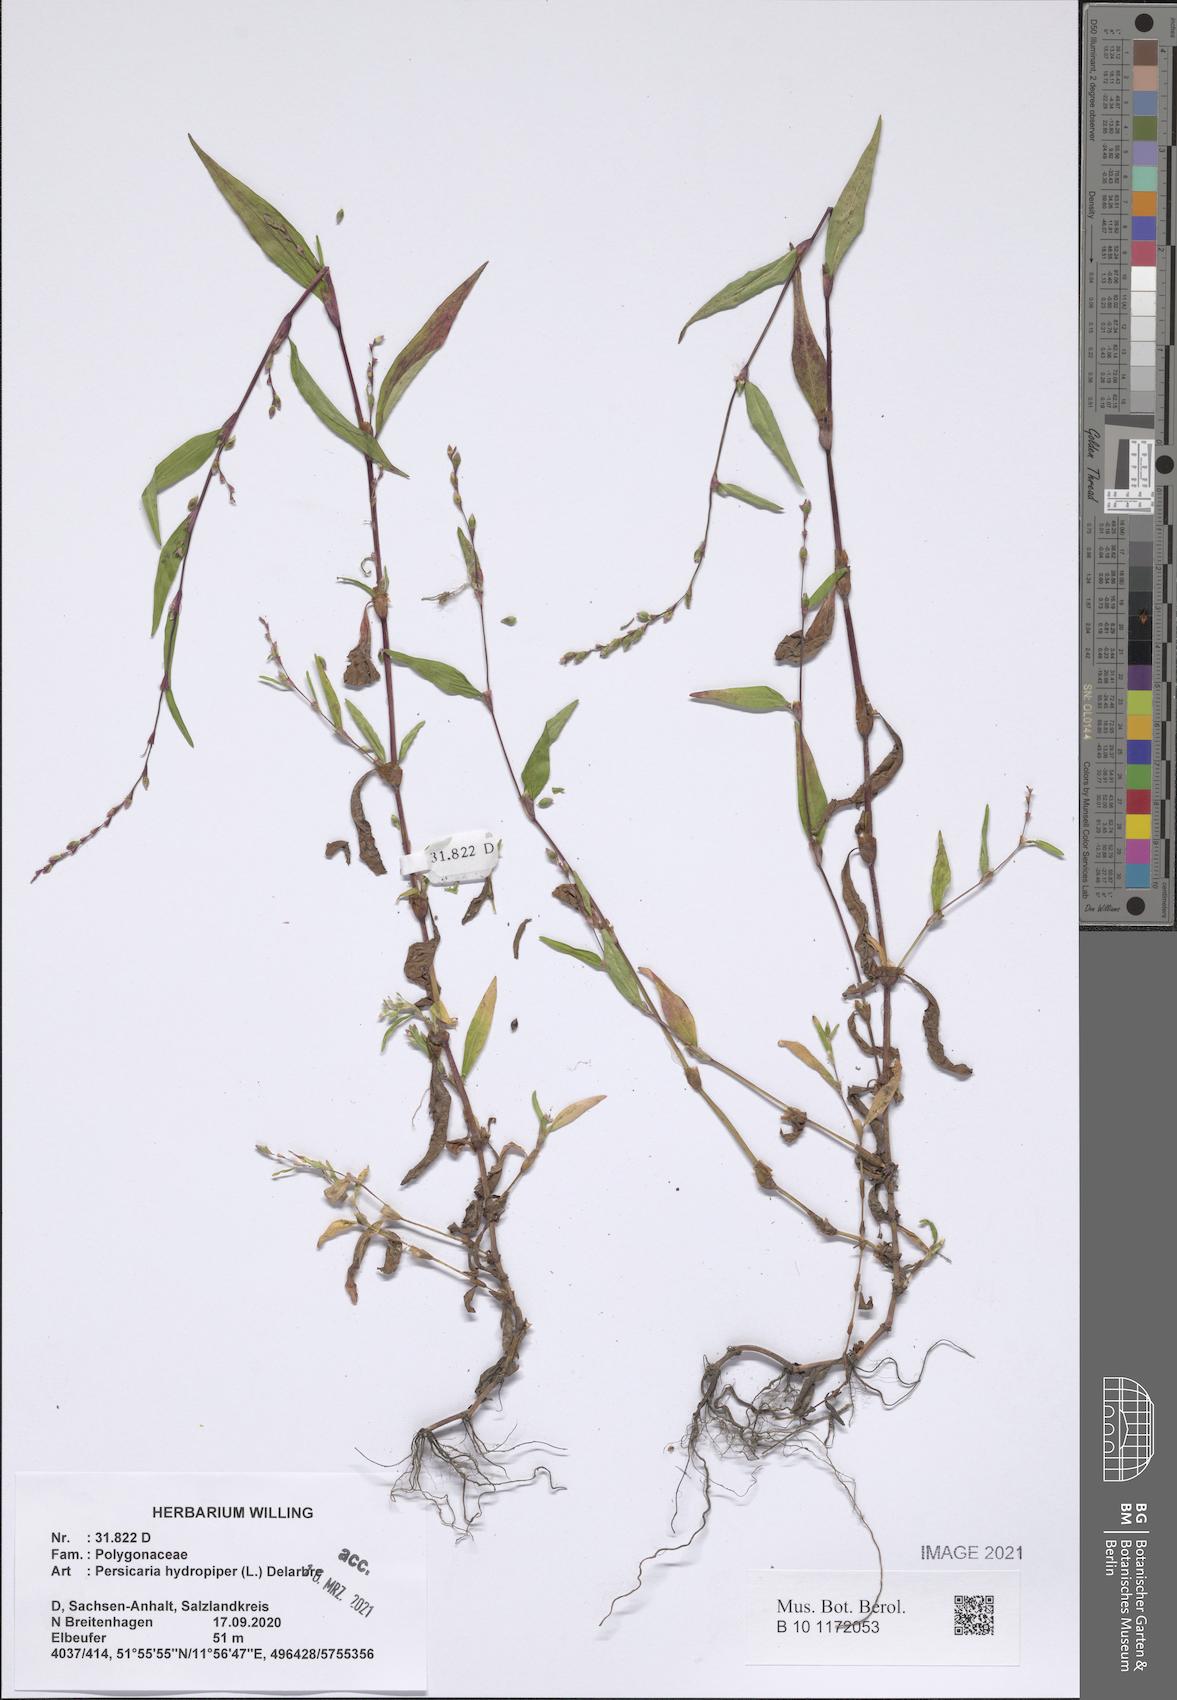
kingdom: Plantae
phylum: Tracheophyta
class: Magnoliopsida
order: Caryophyllales
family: Polygonaceae
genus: Persicaria
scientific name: Persicaria hydropiper
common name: Water-pepper
